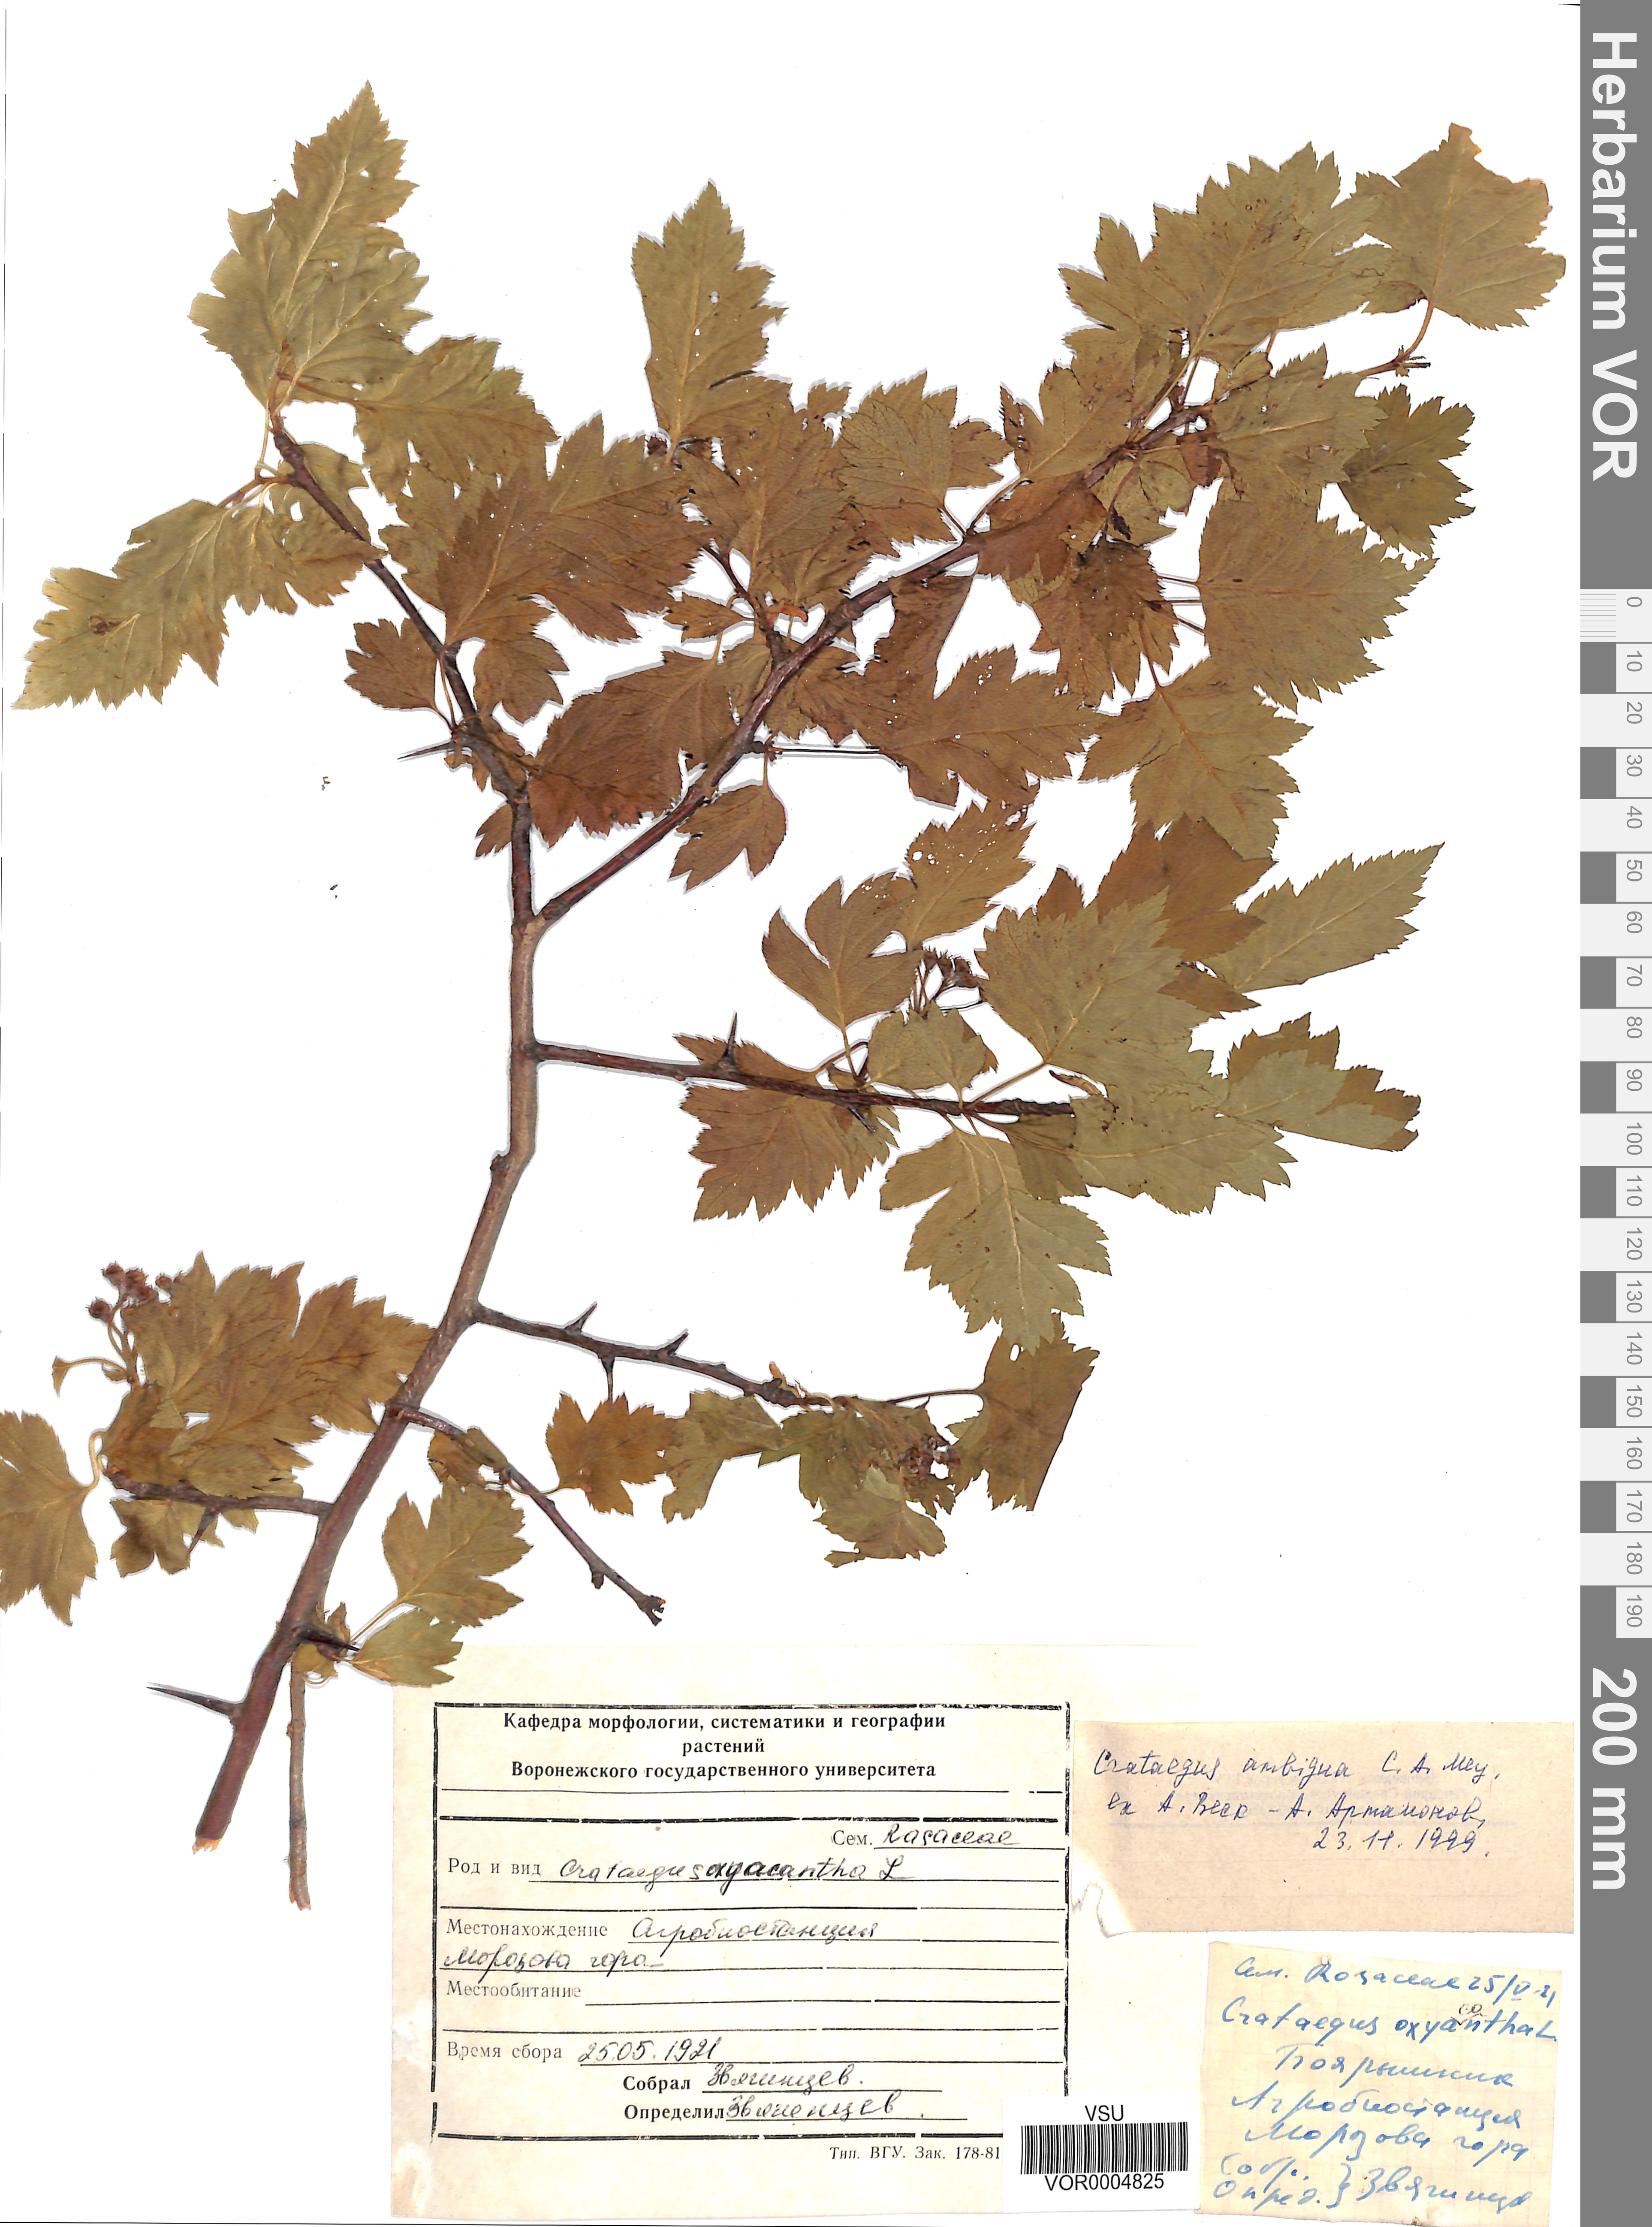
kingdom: Plantae
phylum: Tracheophyta
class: Magnoliopsida
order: Rosales
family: Rosaceae
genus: Crataegus
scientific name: Crataegus ambigua
